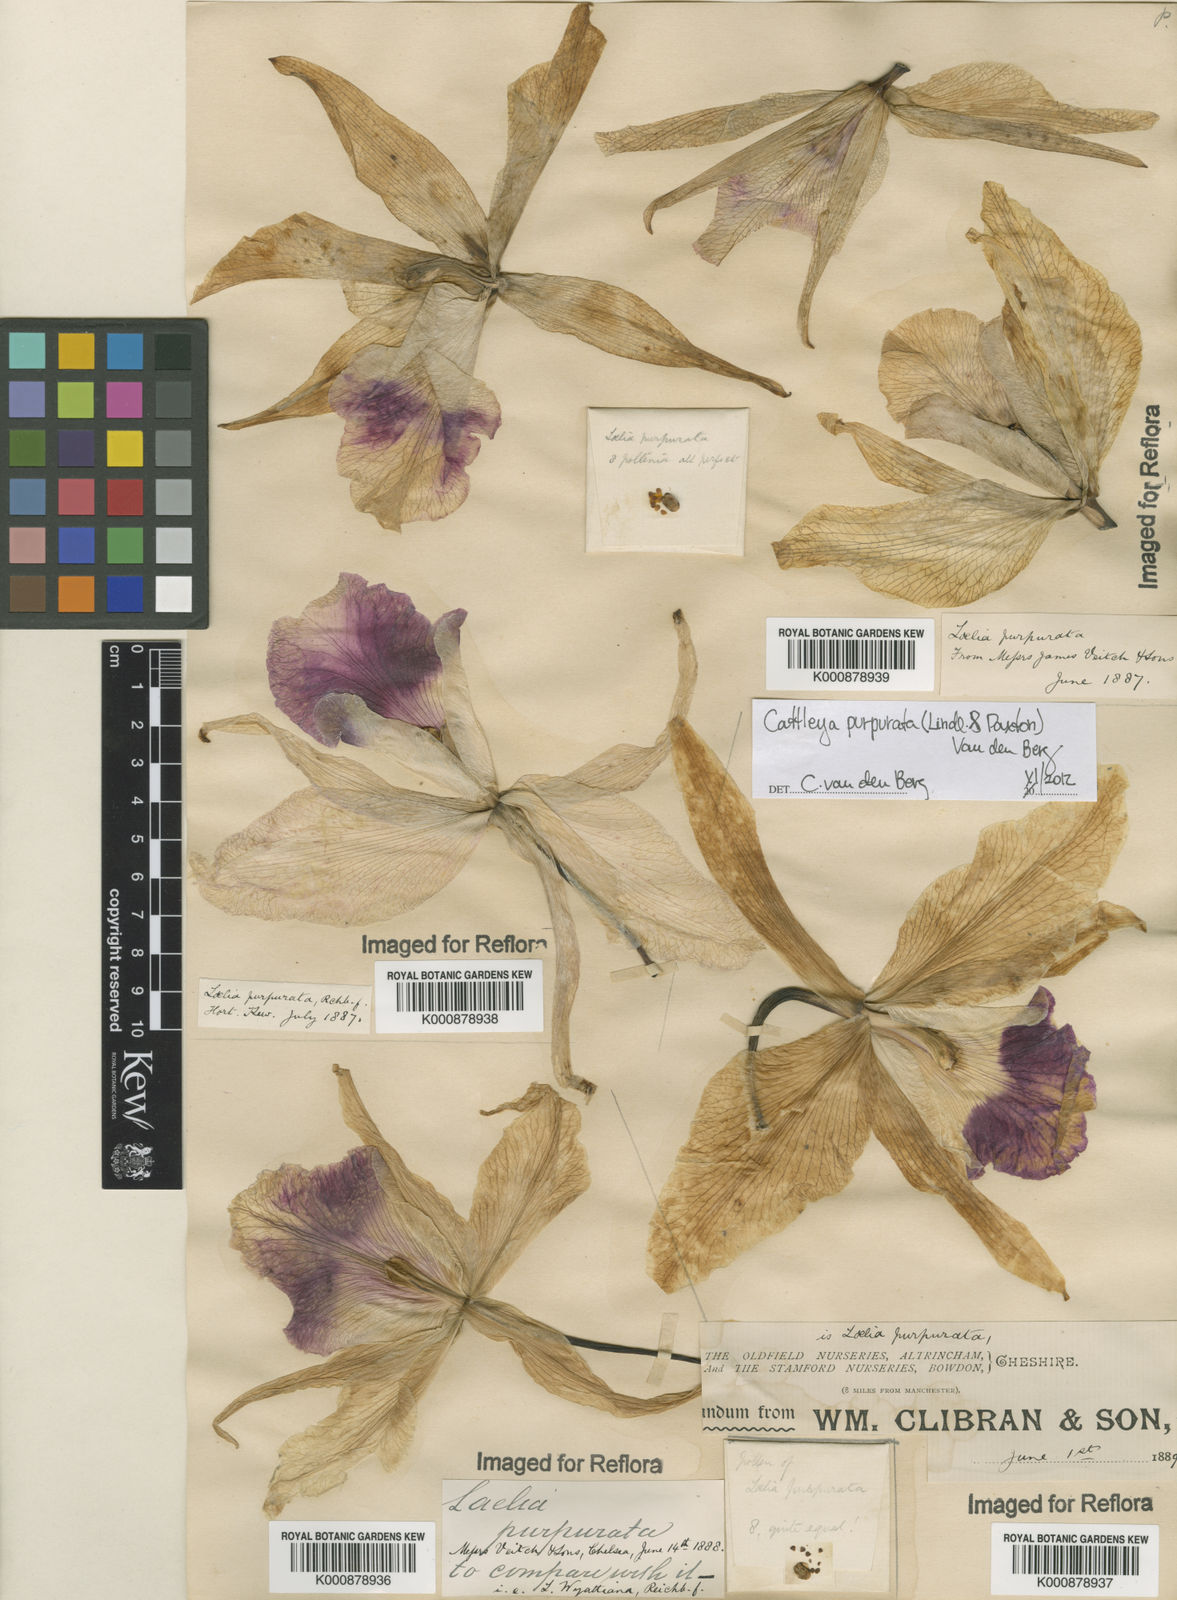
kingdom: Plantae
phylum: Tracheophyta
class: Liliopsida
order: Asparagales
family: Orchidaceae
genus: Cattleya
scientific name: Cattleya
